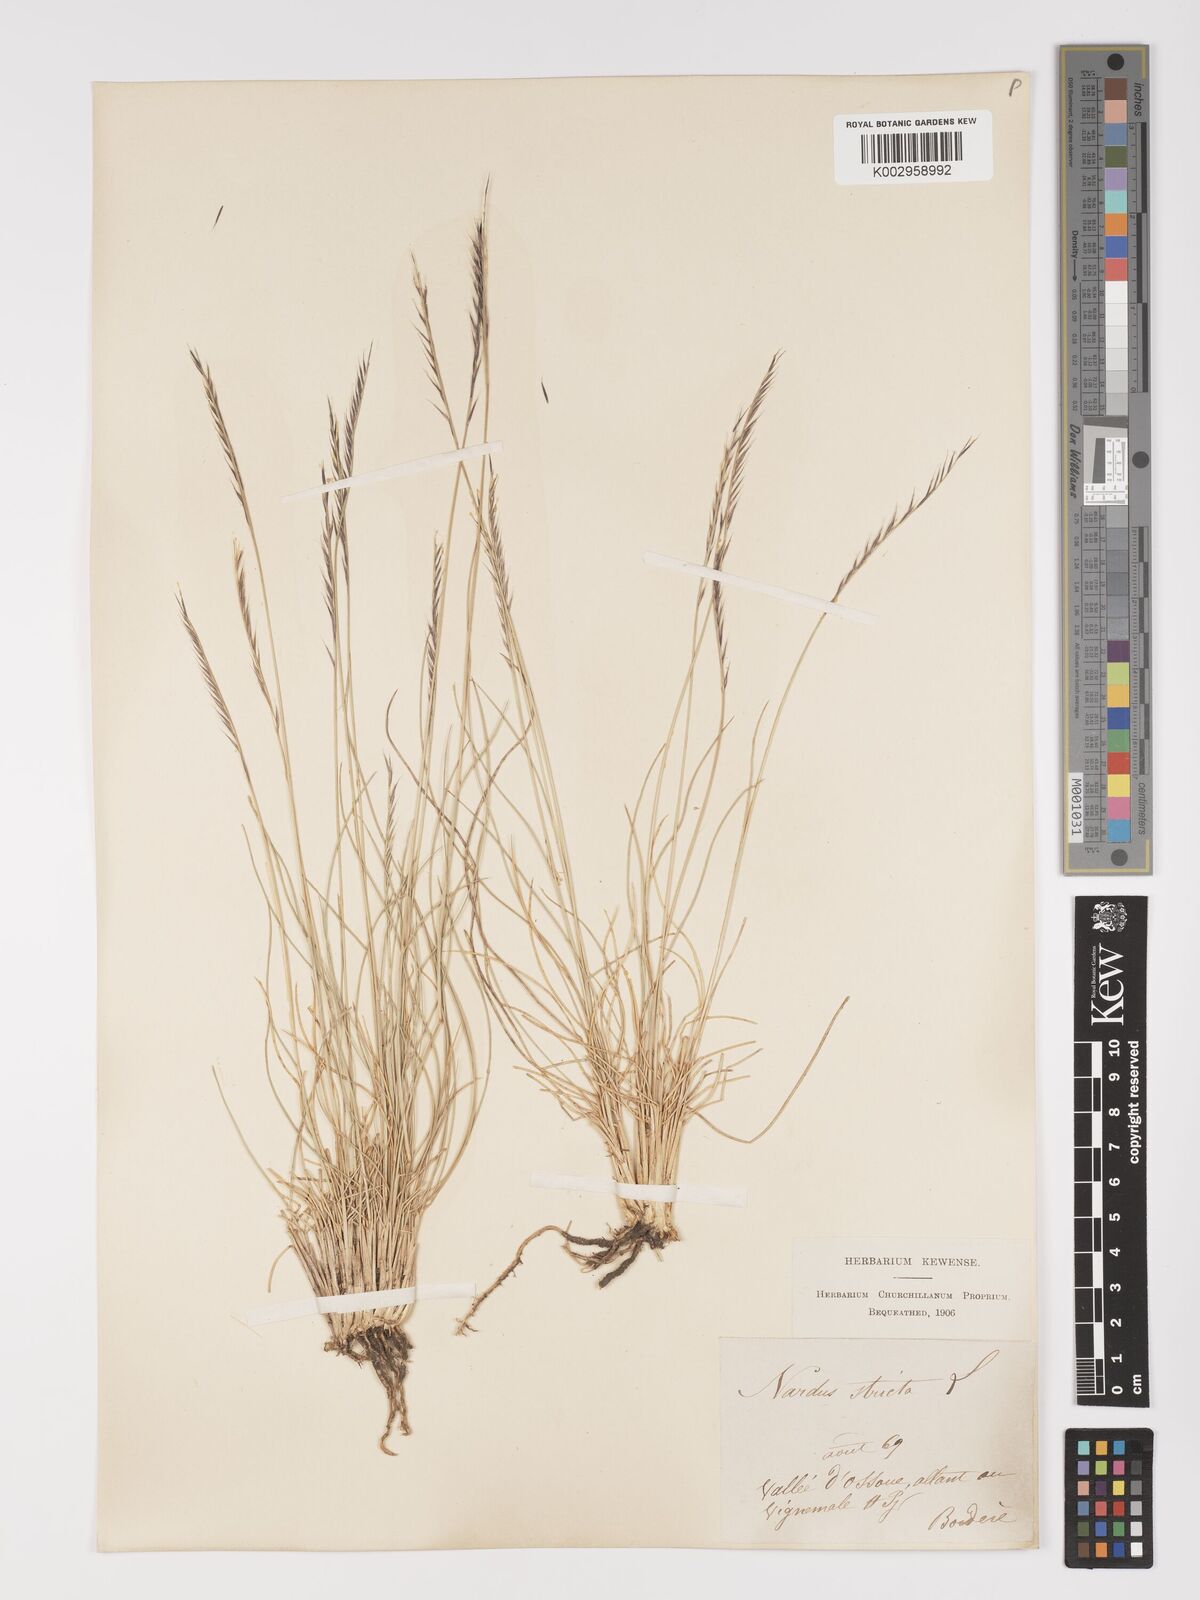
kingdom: Plantae
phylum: Tracheophyta
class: Liliopsida
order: Poales
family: Poaceae
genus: Nardus
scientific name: Nardus stricta
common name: Mat-grass
